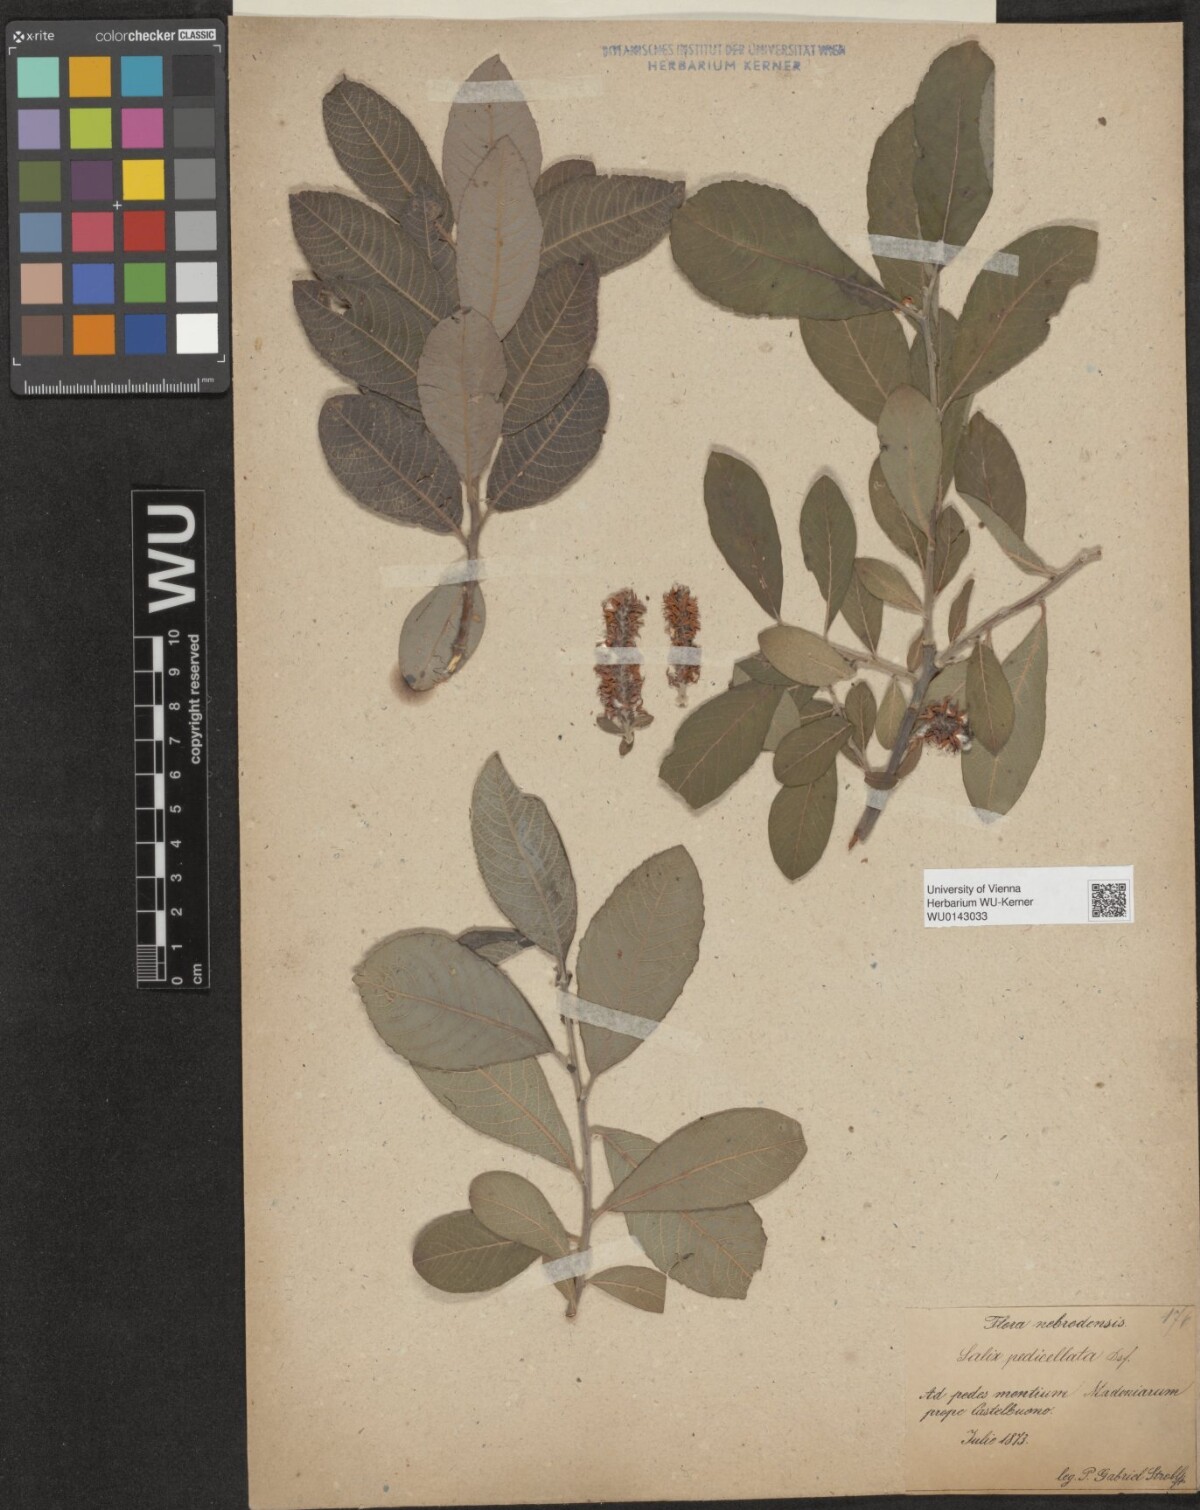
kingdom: Plantae
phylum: Tracheophyta
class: Magnoliopsida
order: Malpighiales
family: Salicaceae
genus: Salix
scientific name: Salix pedicellata
